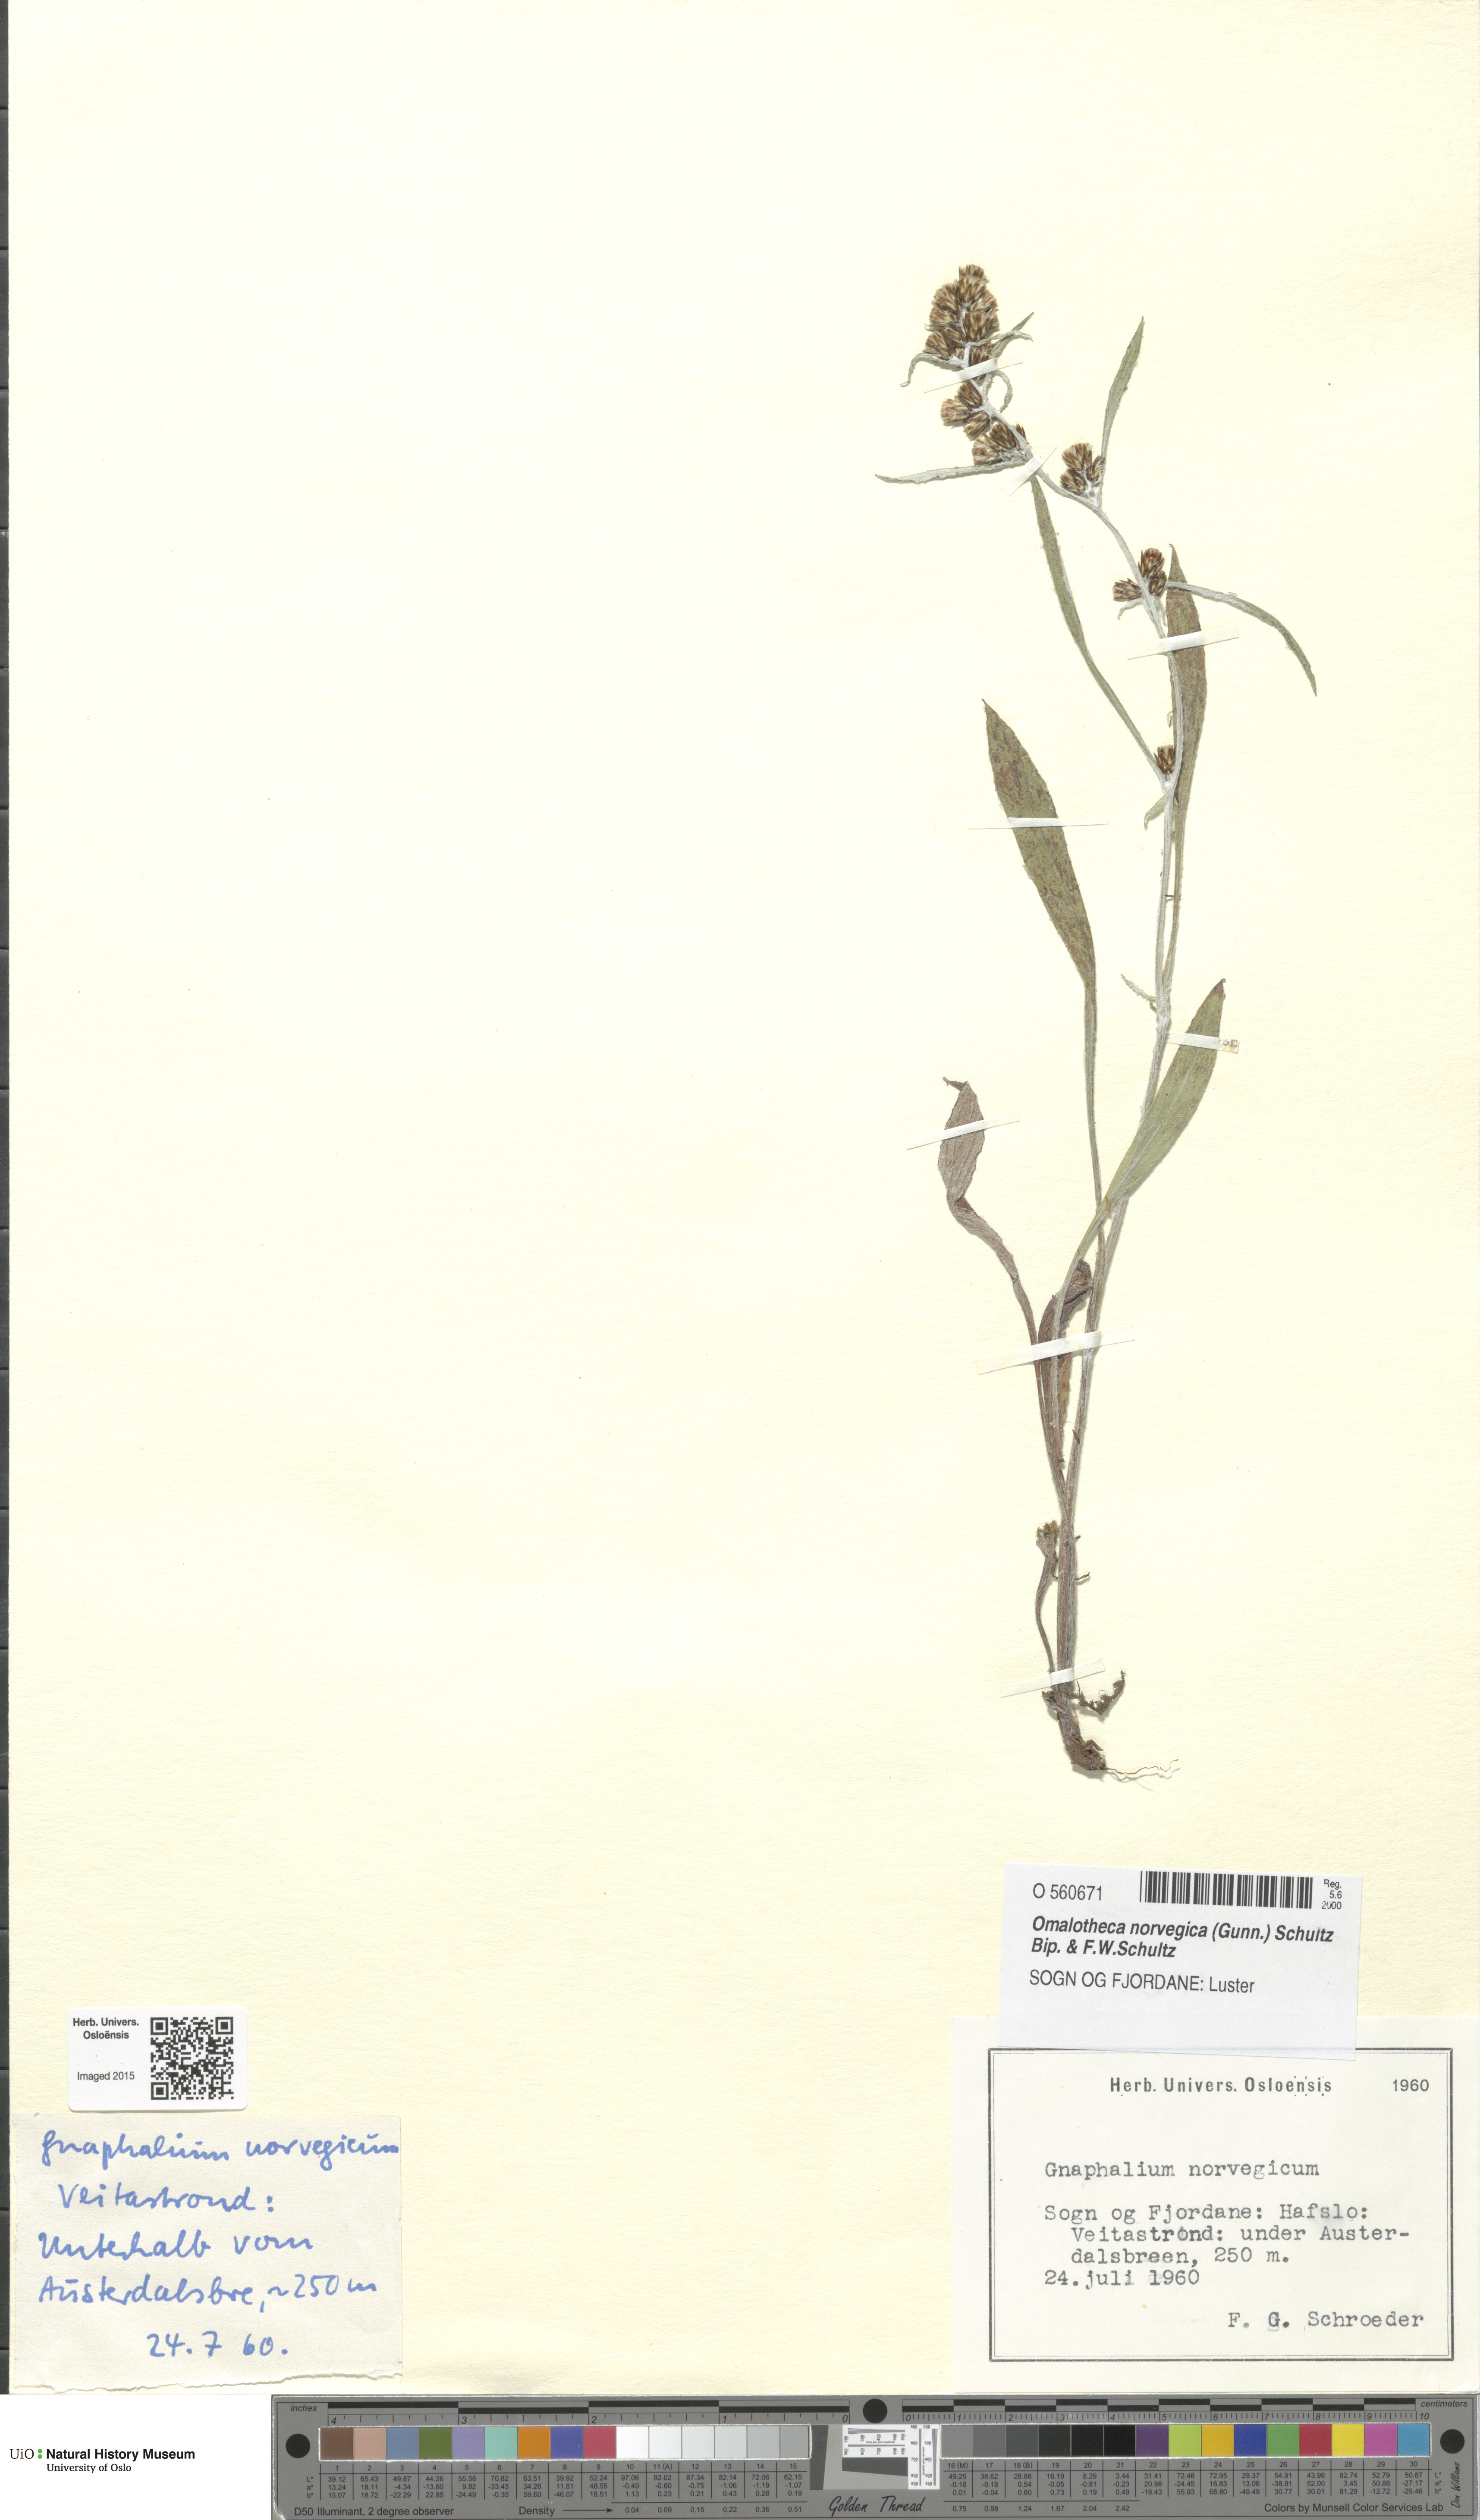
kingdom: Plantae
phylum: Tracheophyta
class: Magnoliopsida
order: Asterales
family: Asteraceae
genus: Omalotheca
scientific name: Omalotheca norvegica
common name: Norwegian arctic-cudweed
